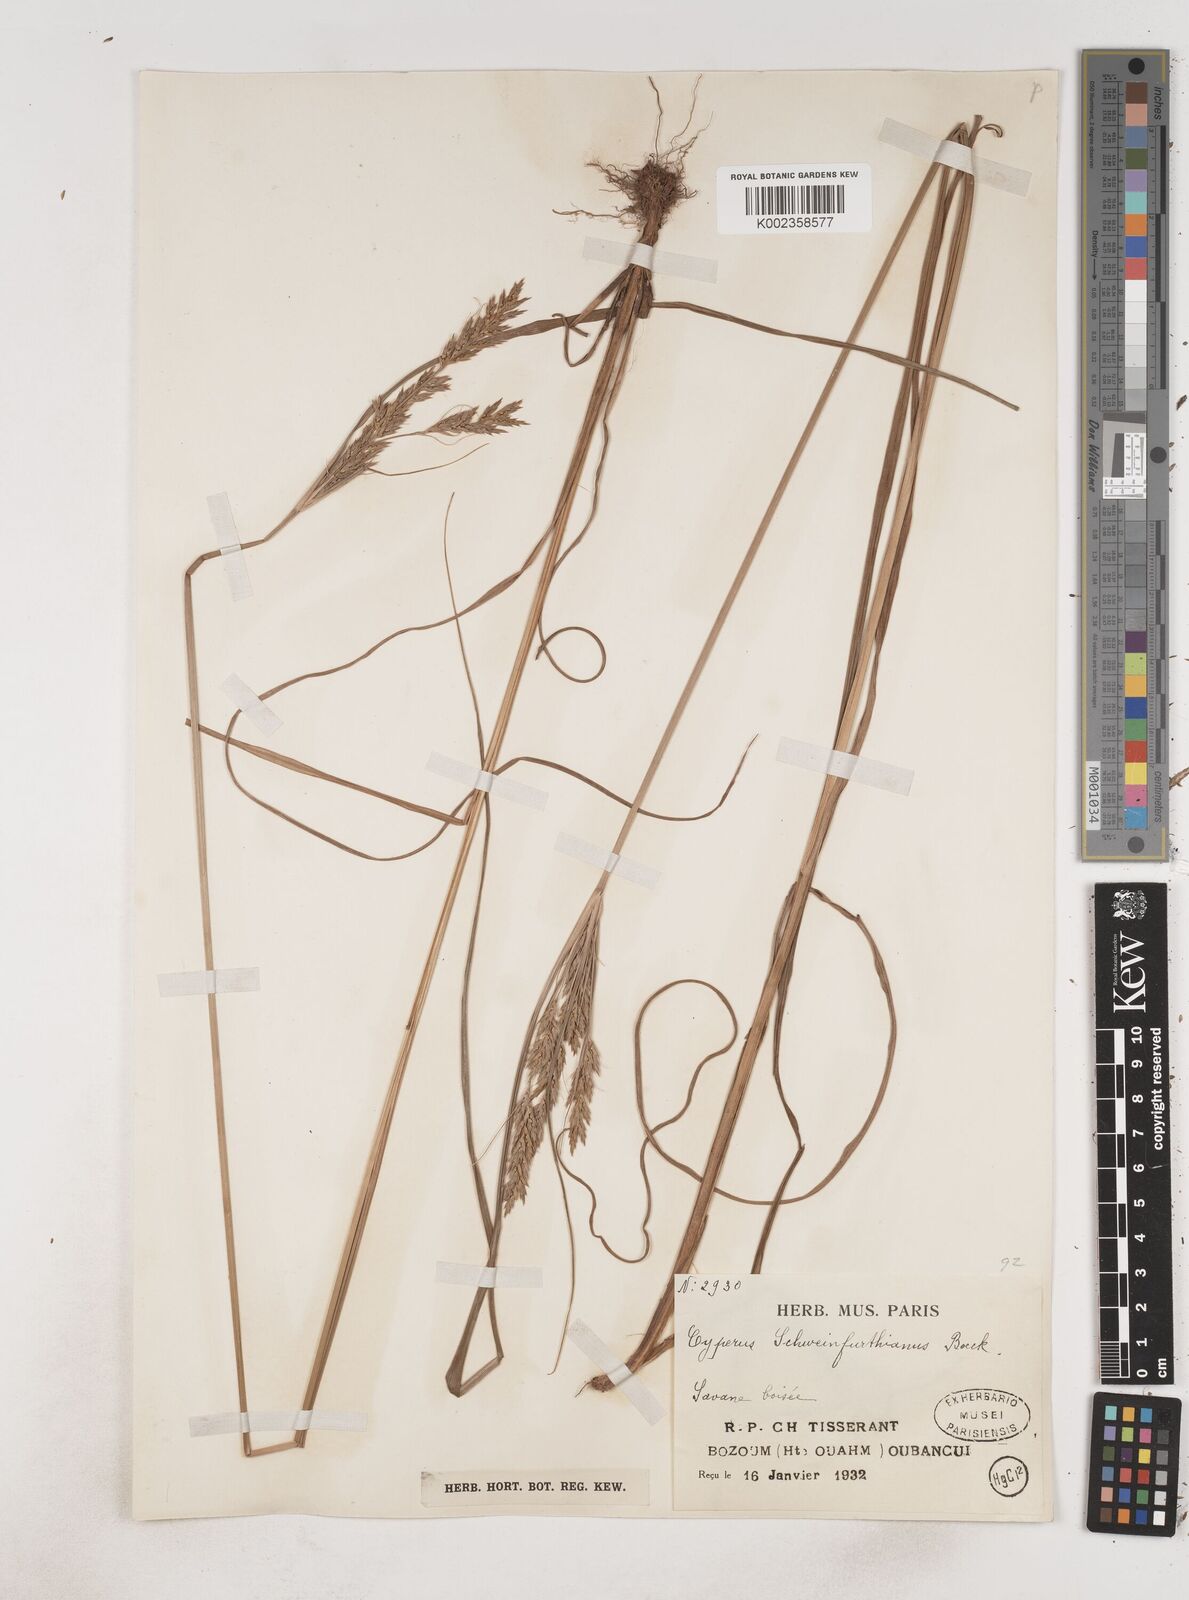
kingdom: Plantae
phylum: Tracheophyta
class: Liliopsida
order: Poales
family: Cyperaceae
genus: Cyperus
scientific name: Cyperus
